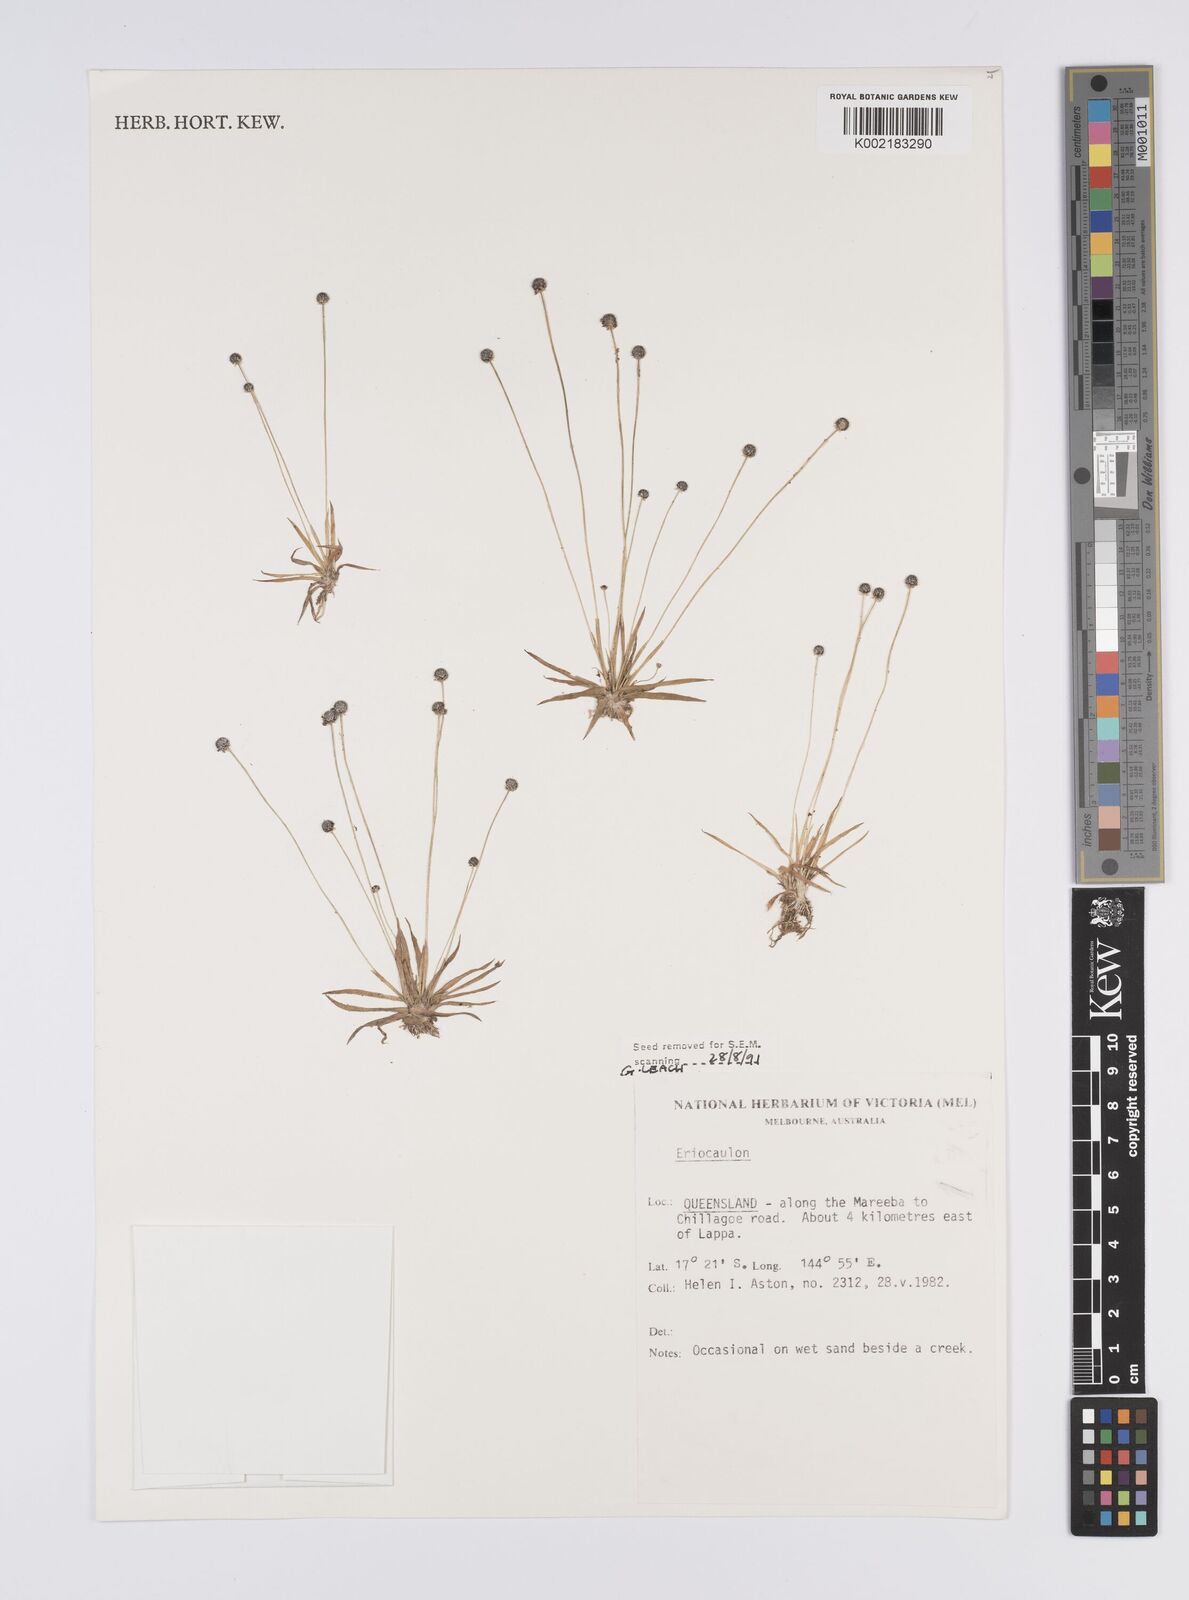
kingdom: Plantae
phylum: Tracheophyta
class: Liliopsida
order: Poales
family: Eriocaulaceae
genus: Eriocaulon
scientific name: Eriocaulon
